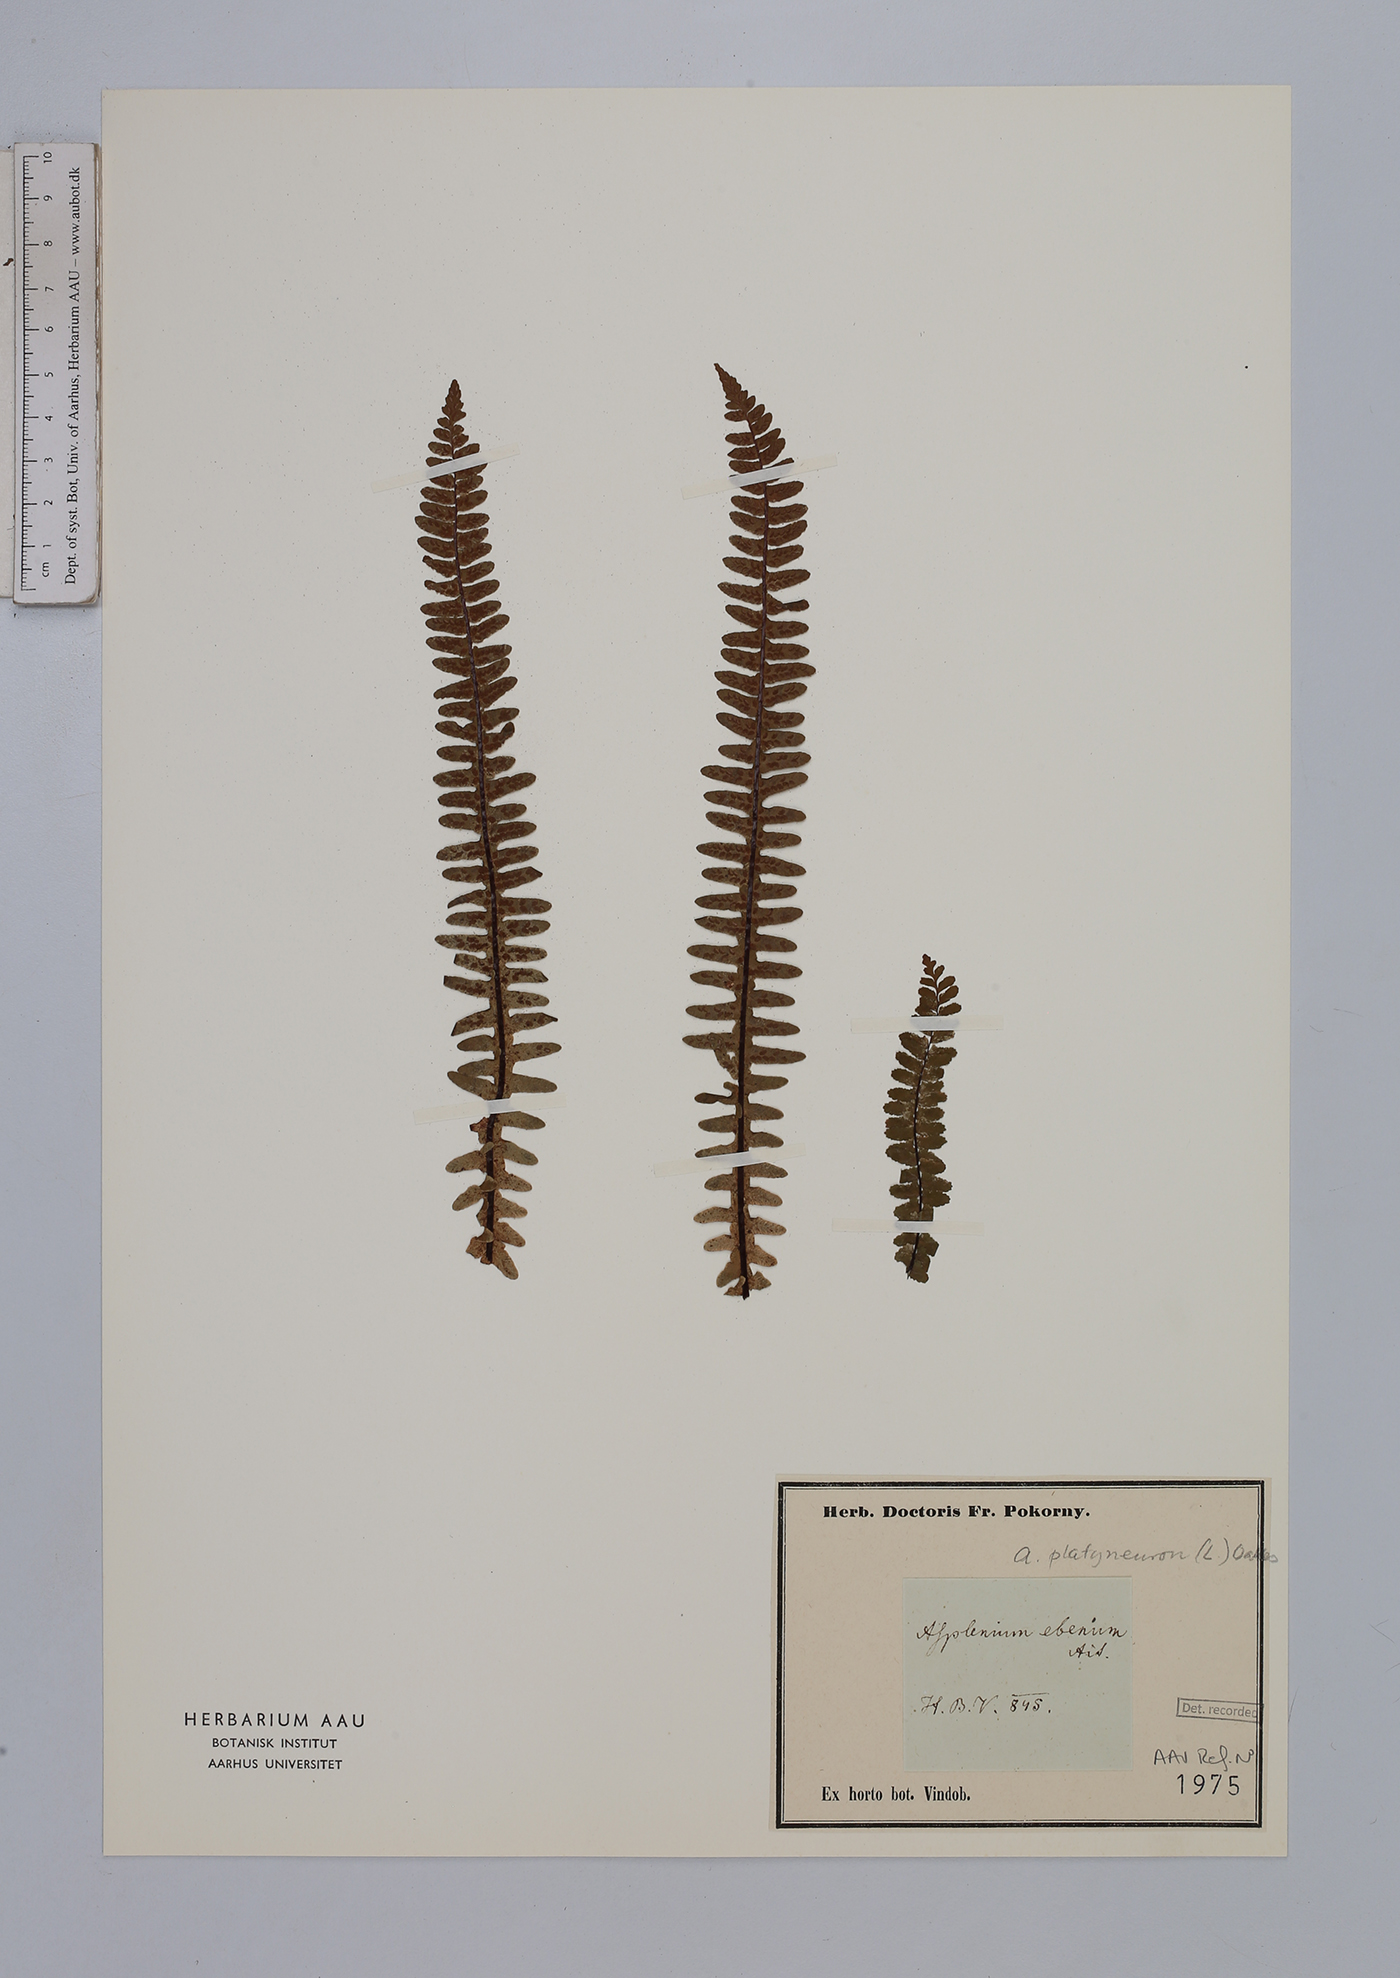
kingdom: Plantae
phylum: Tracheophyta
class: Polypodiopsida
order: Polypodiales
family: Aspleniaceae
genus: Asplenium
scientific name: Asplenium platyneuron
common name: Ebony spleenwort
